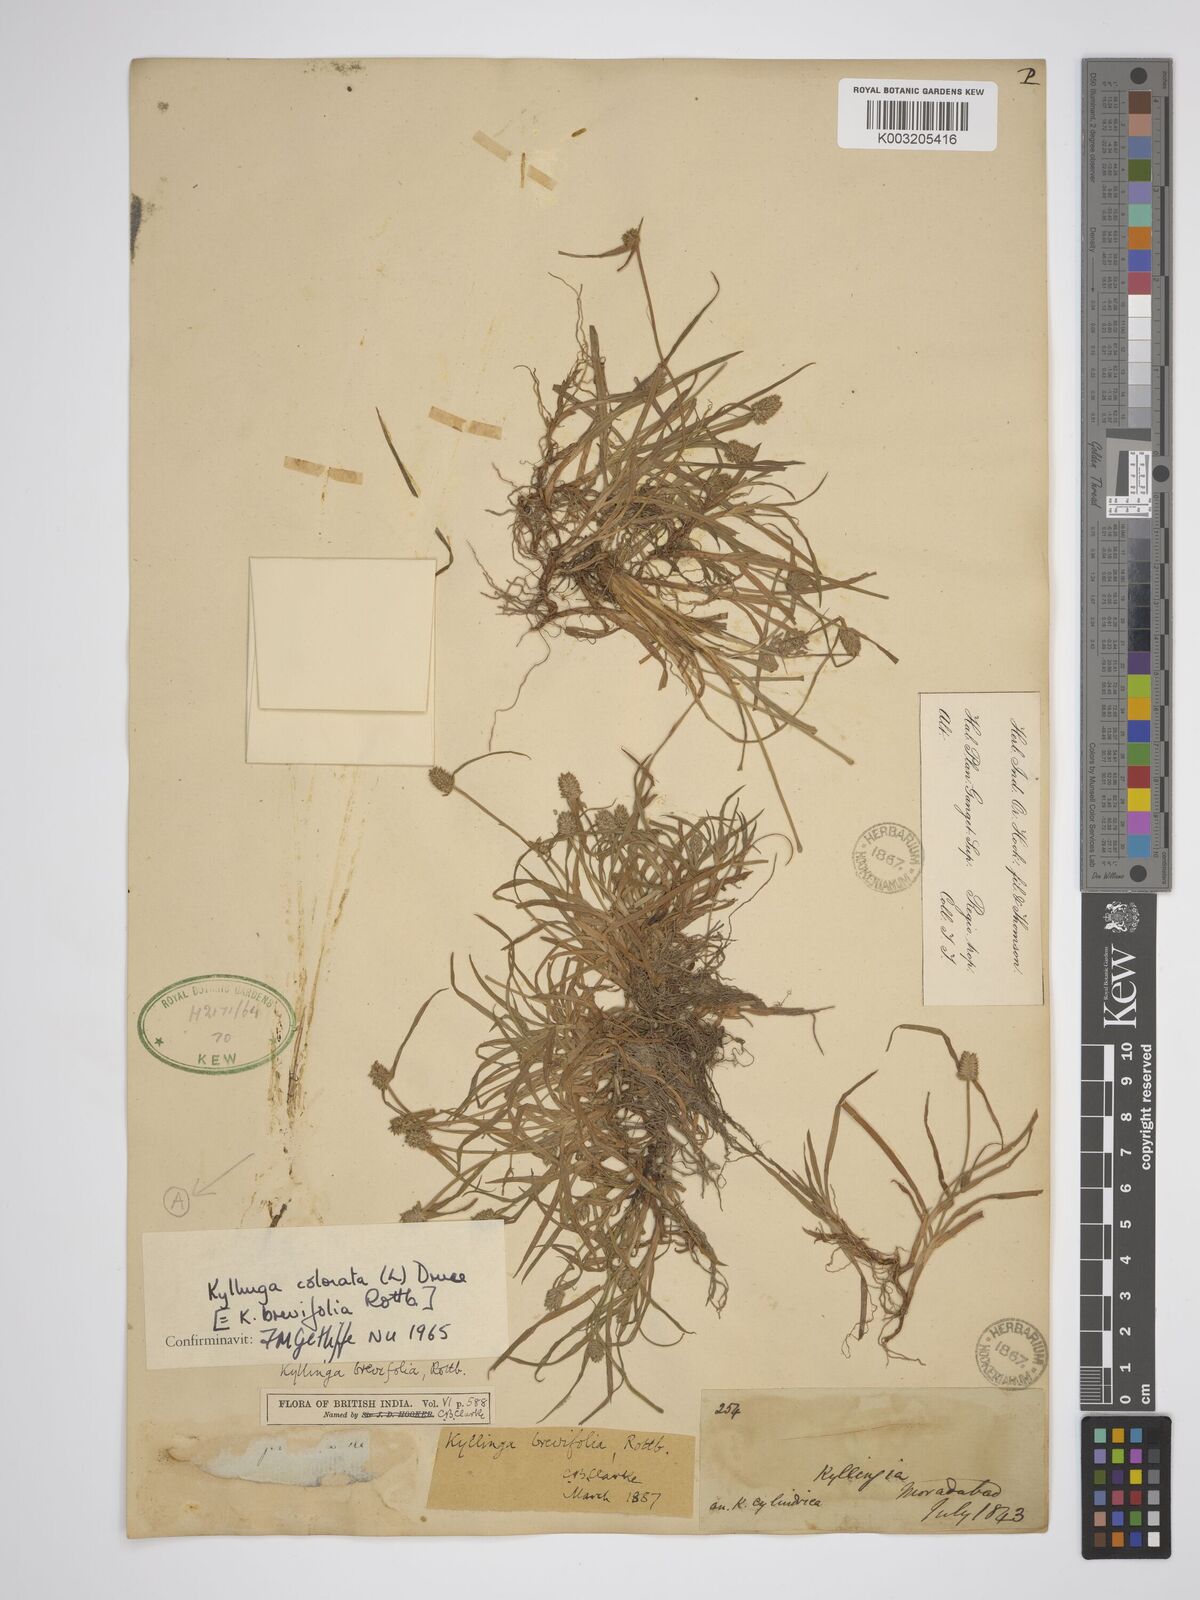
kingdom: Plantae
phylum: Tracheophyta
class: Liliopsida
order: Poales
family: Cyperaceae
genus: Rhynchospora
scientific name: Rhynchospora colorata
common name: Star sedge
